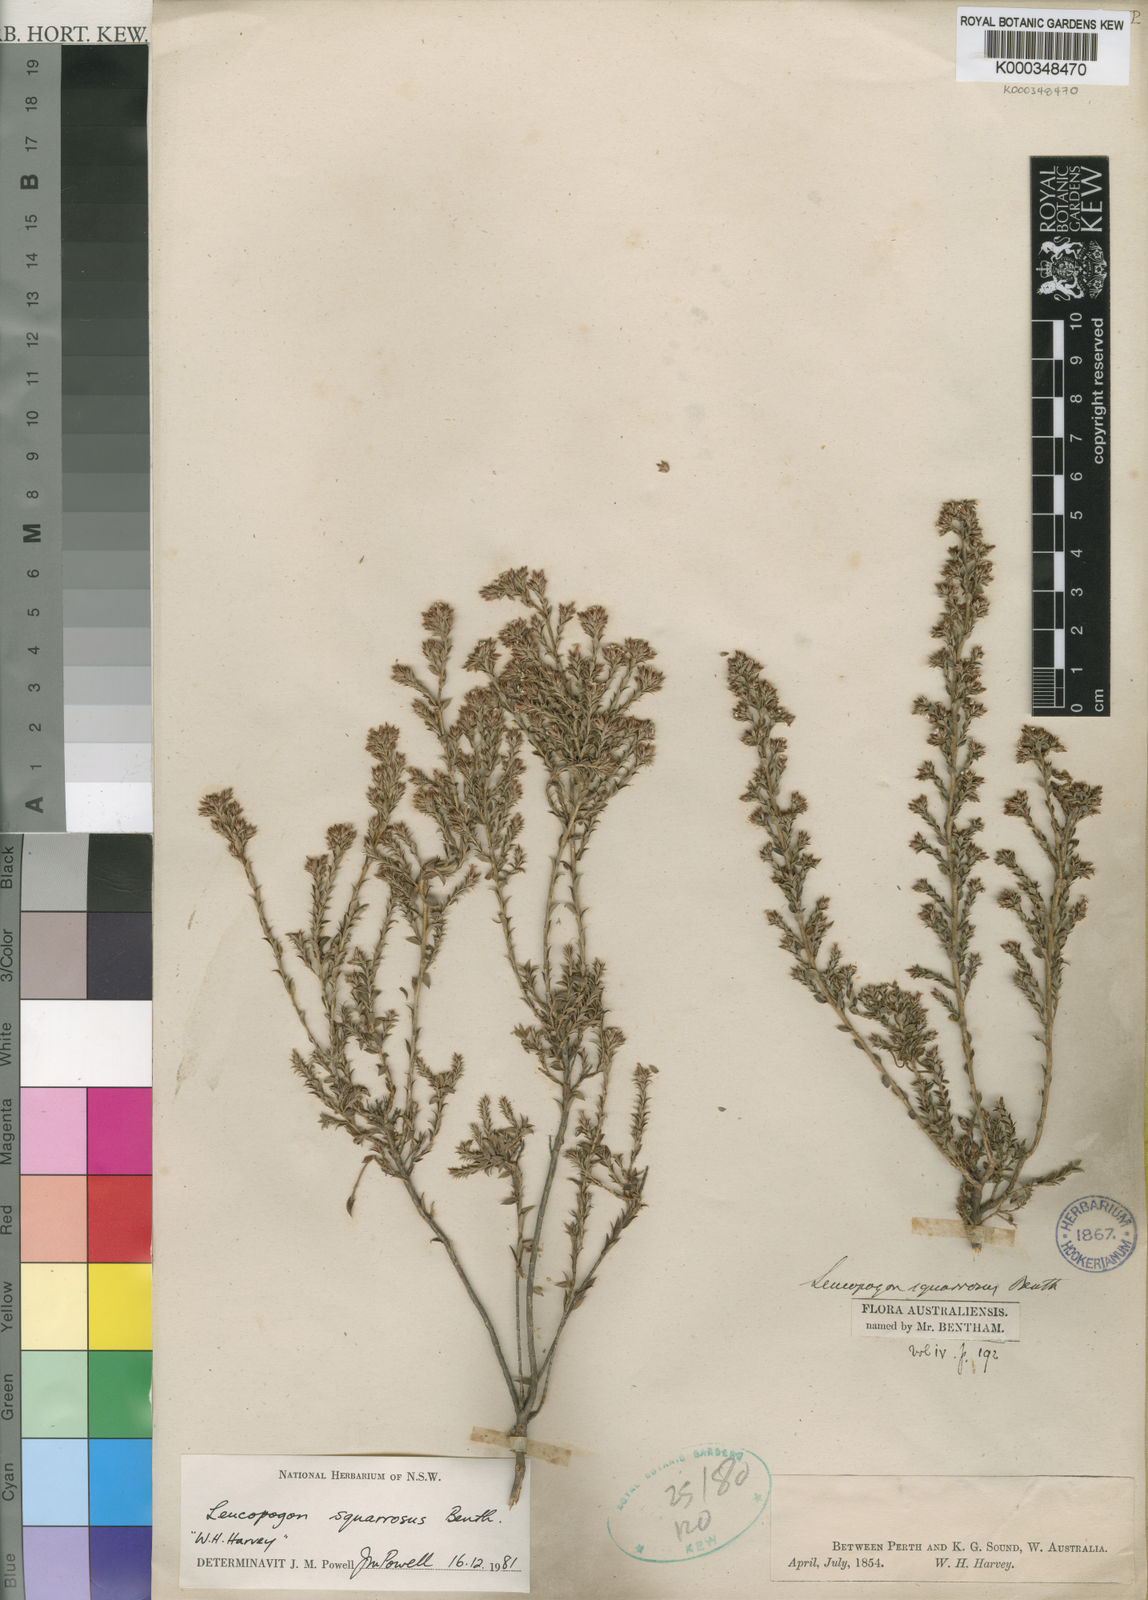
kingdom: Plantae
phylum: Tracheophyta
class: Magnoliopsida
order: Ericales
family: Ericaceae
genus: Leucopogon
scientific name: Leucopogon squarrosus
